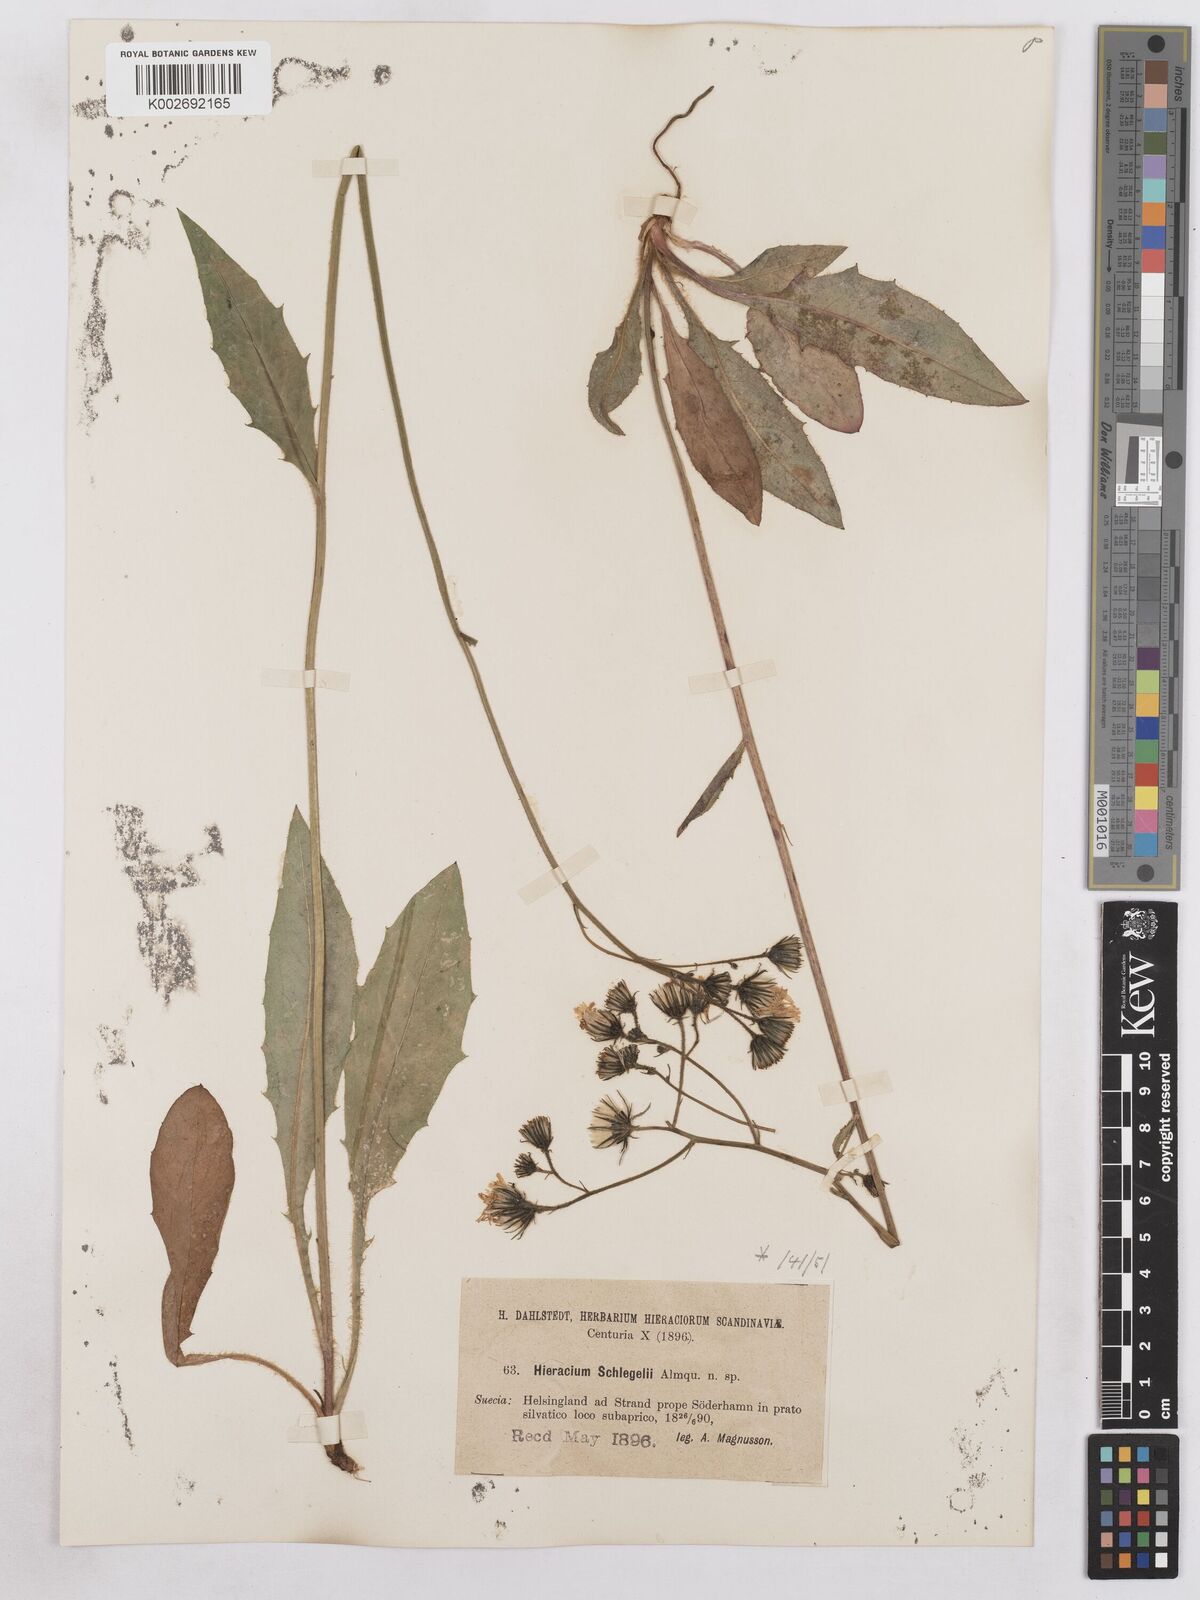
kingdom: Plantae
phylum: Tracheophyta
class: Magnoliopsida
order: Asterales
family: Asteraceae
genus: Hieracium
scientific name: Hieracium diaphanoides
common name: Fine-bracted hawkweed
